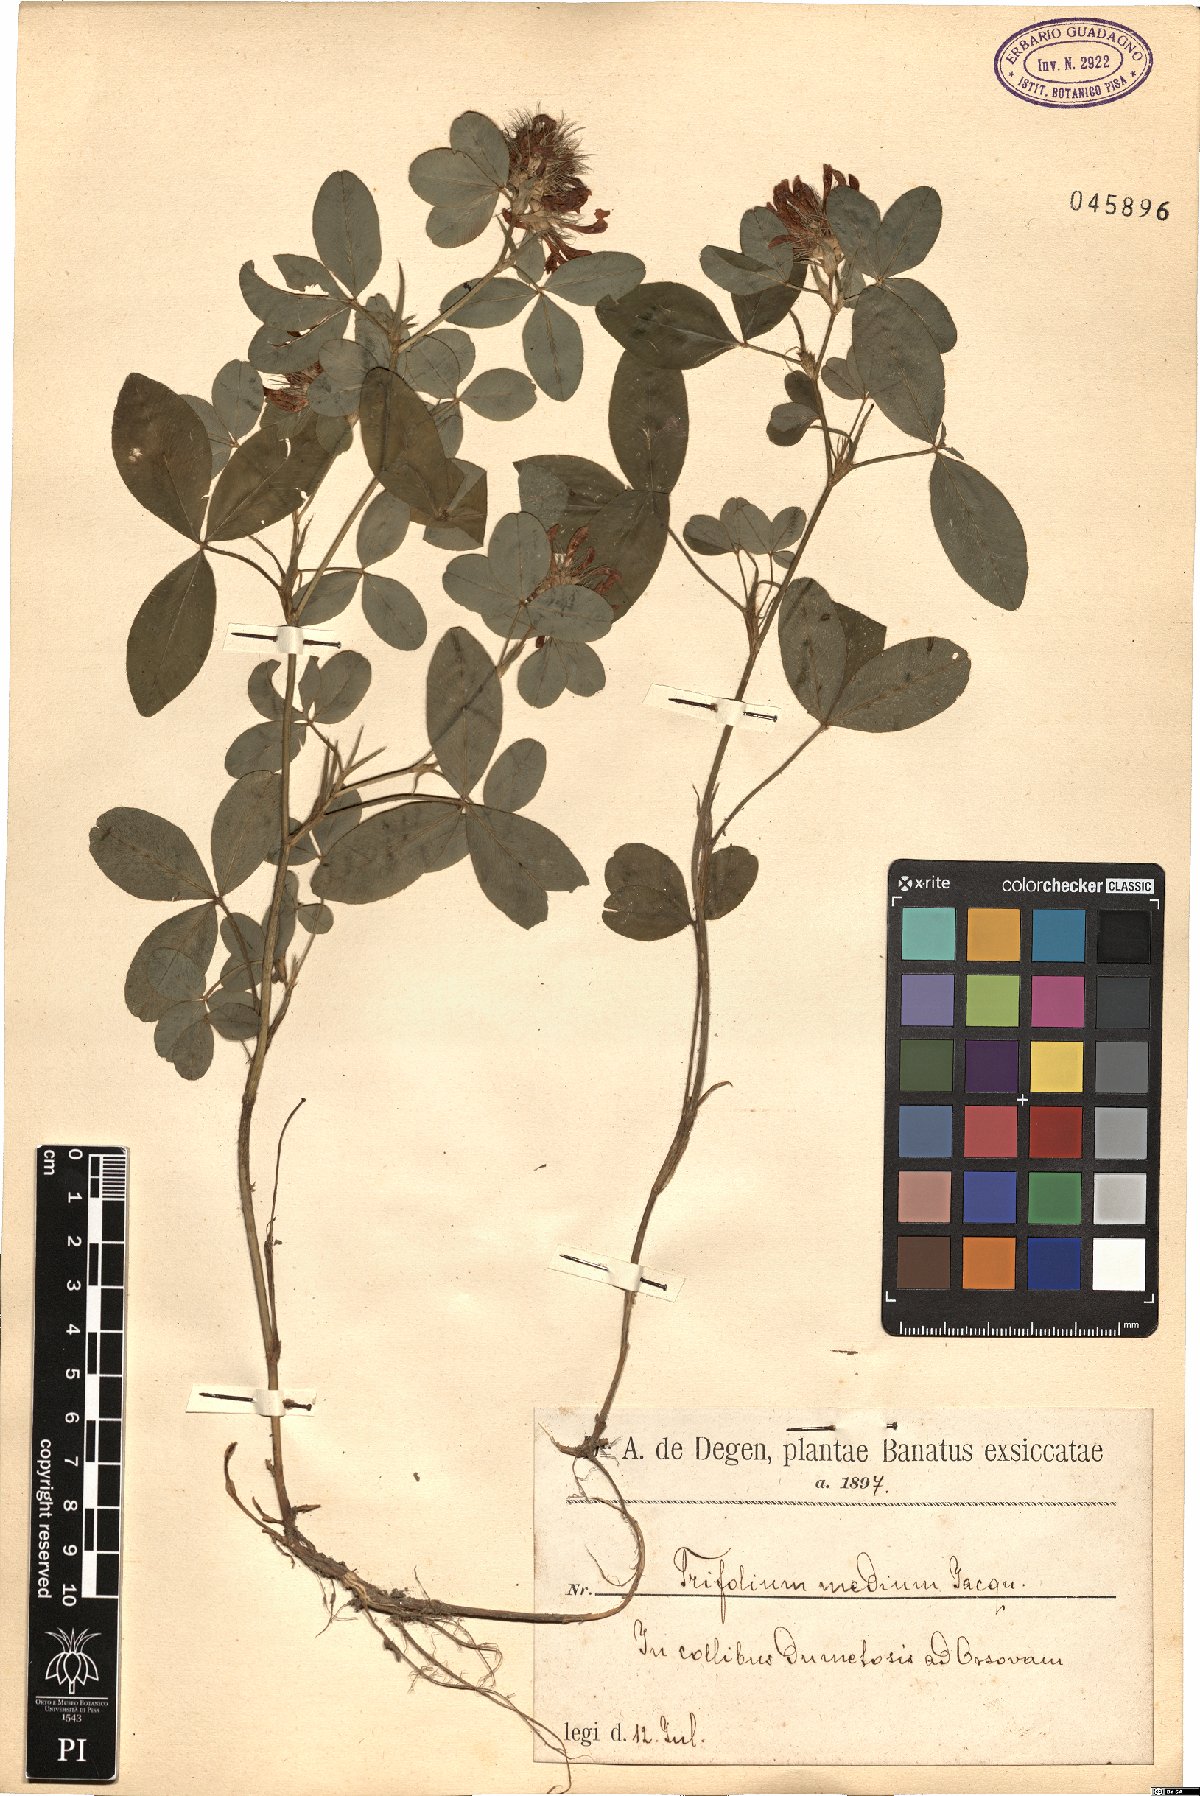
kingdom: Plantae
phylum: Tracheophyta
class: Magnoliopsida
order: Fabales
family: Fabaceae
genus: Trifolium
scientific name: Trifolium medium
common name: Zigzag clover
